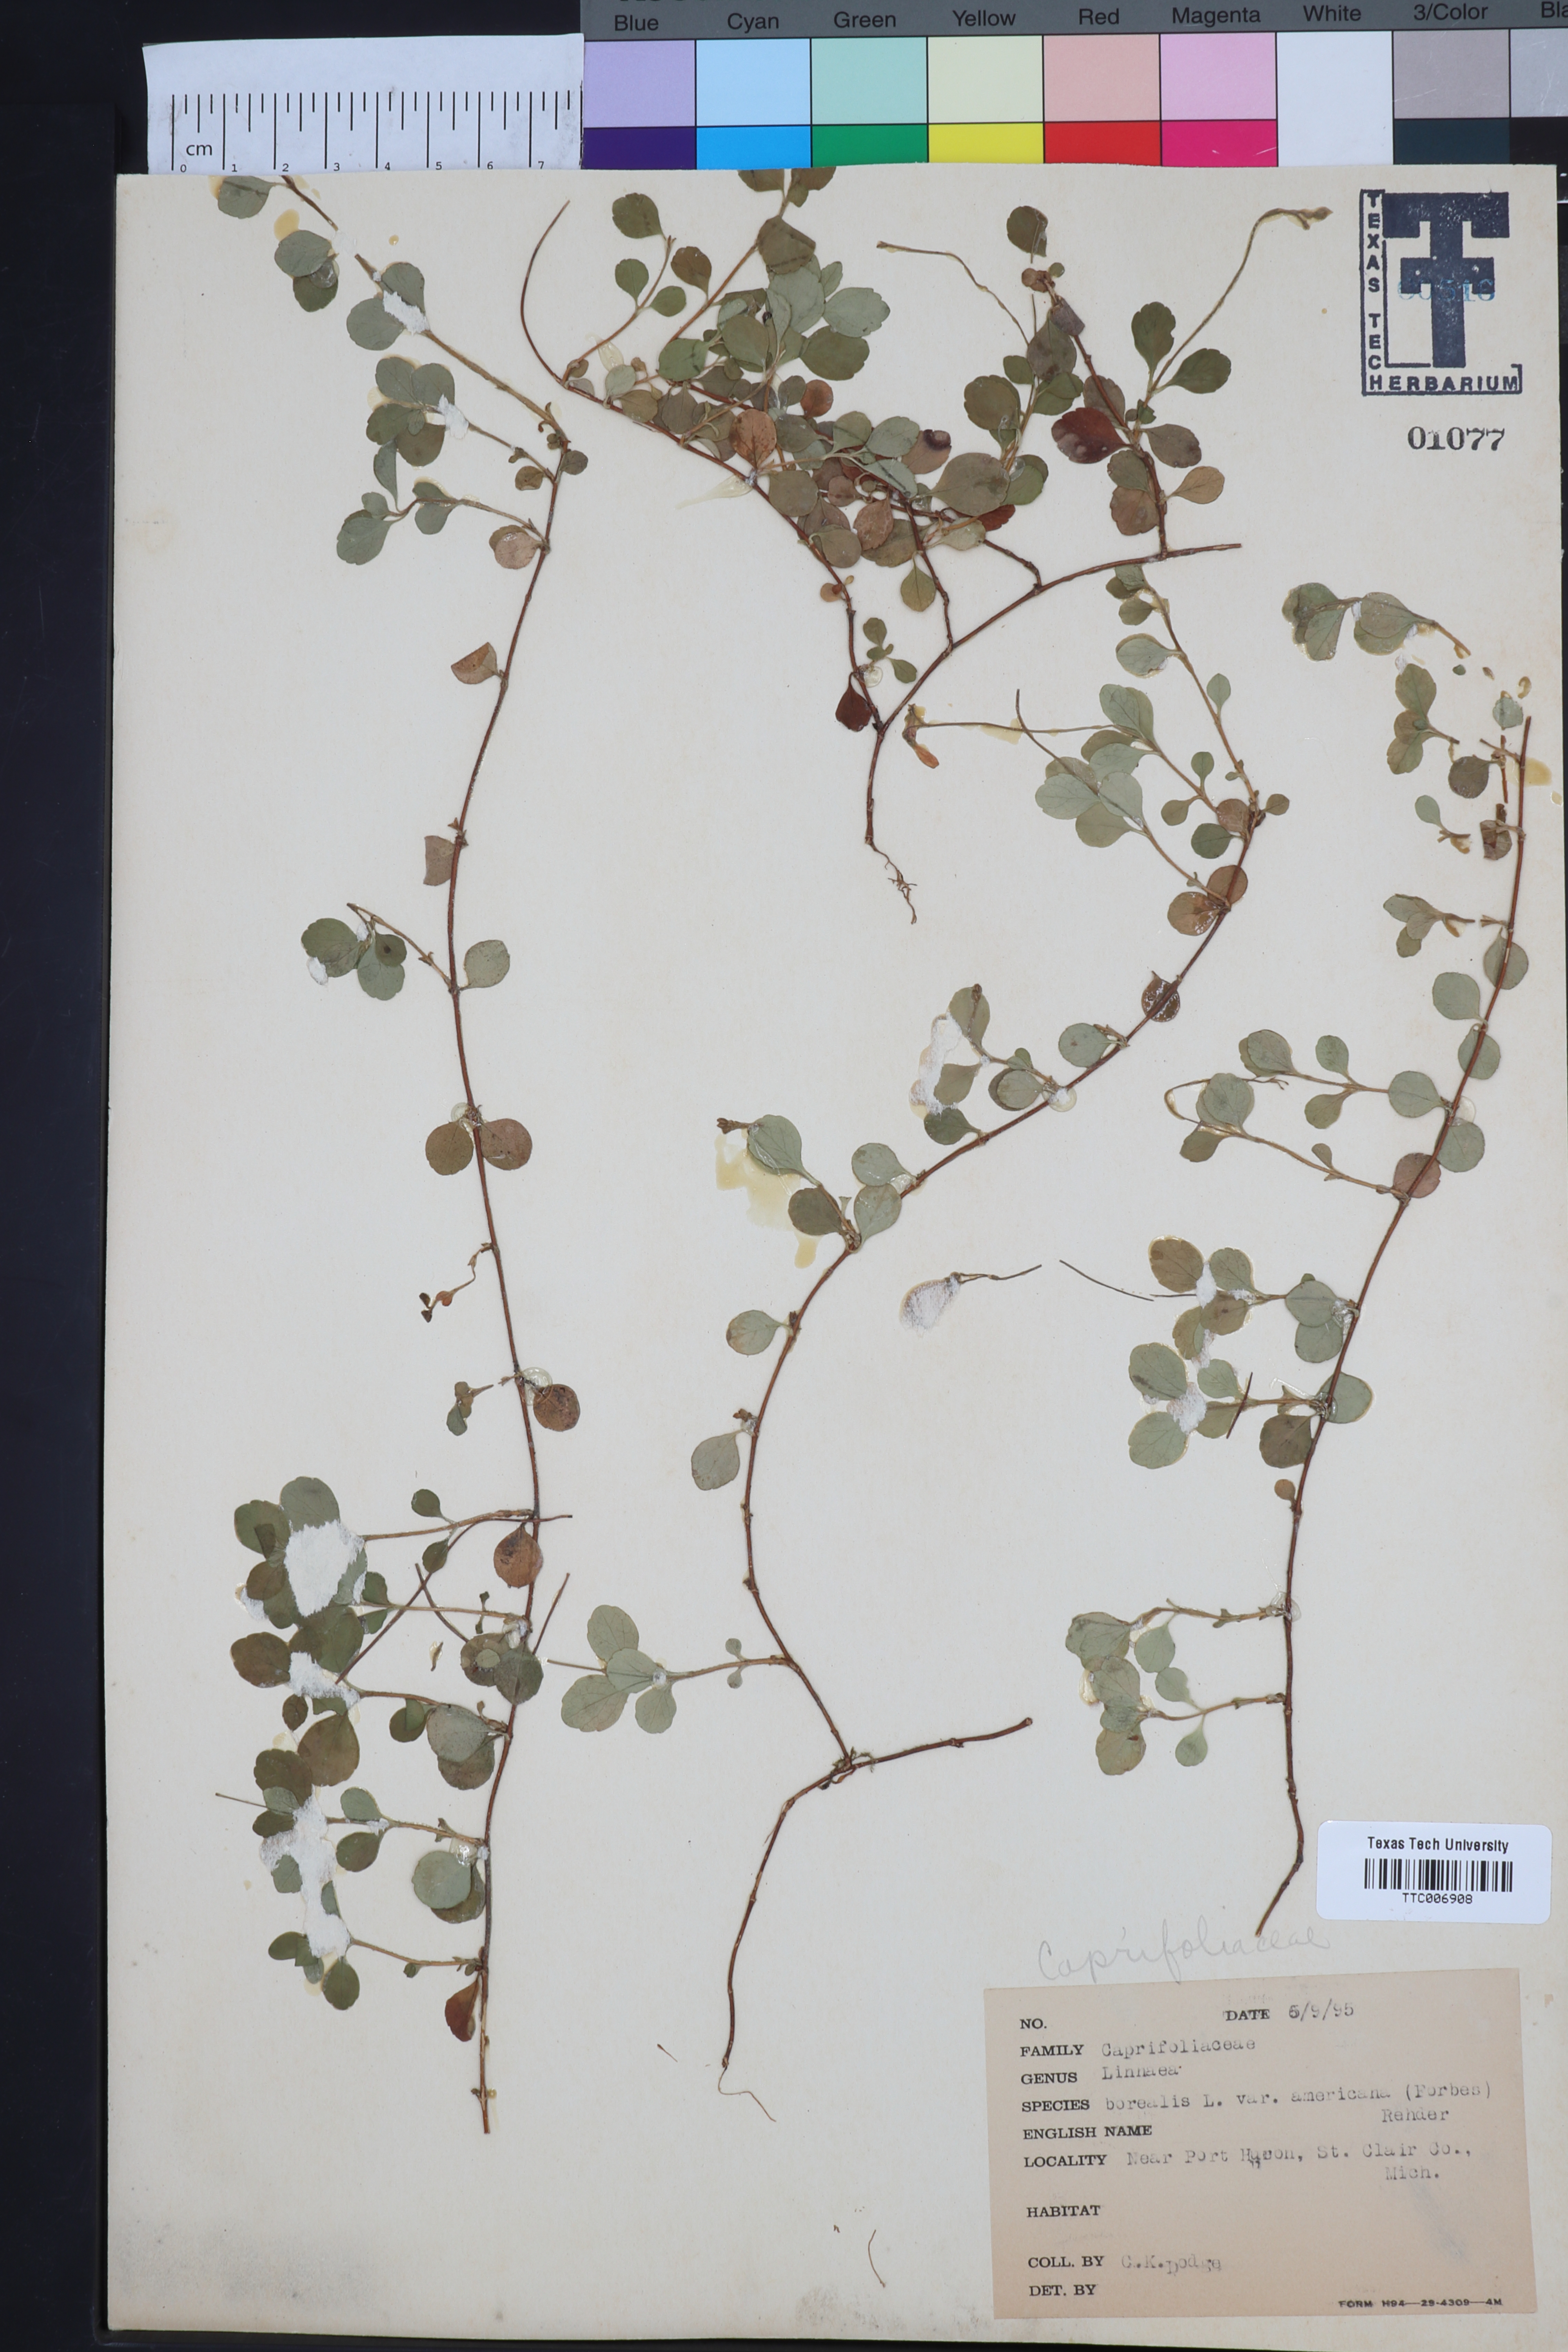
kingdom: Plantae
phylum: Tracheophyta
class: Magnoliopsida
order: Dipsacales
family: Caprifoliaceae
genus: Linnaea
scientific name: Linnaea borealis
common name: Twinflower
